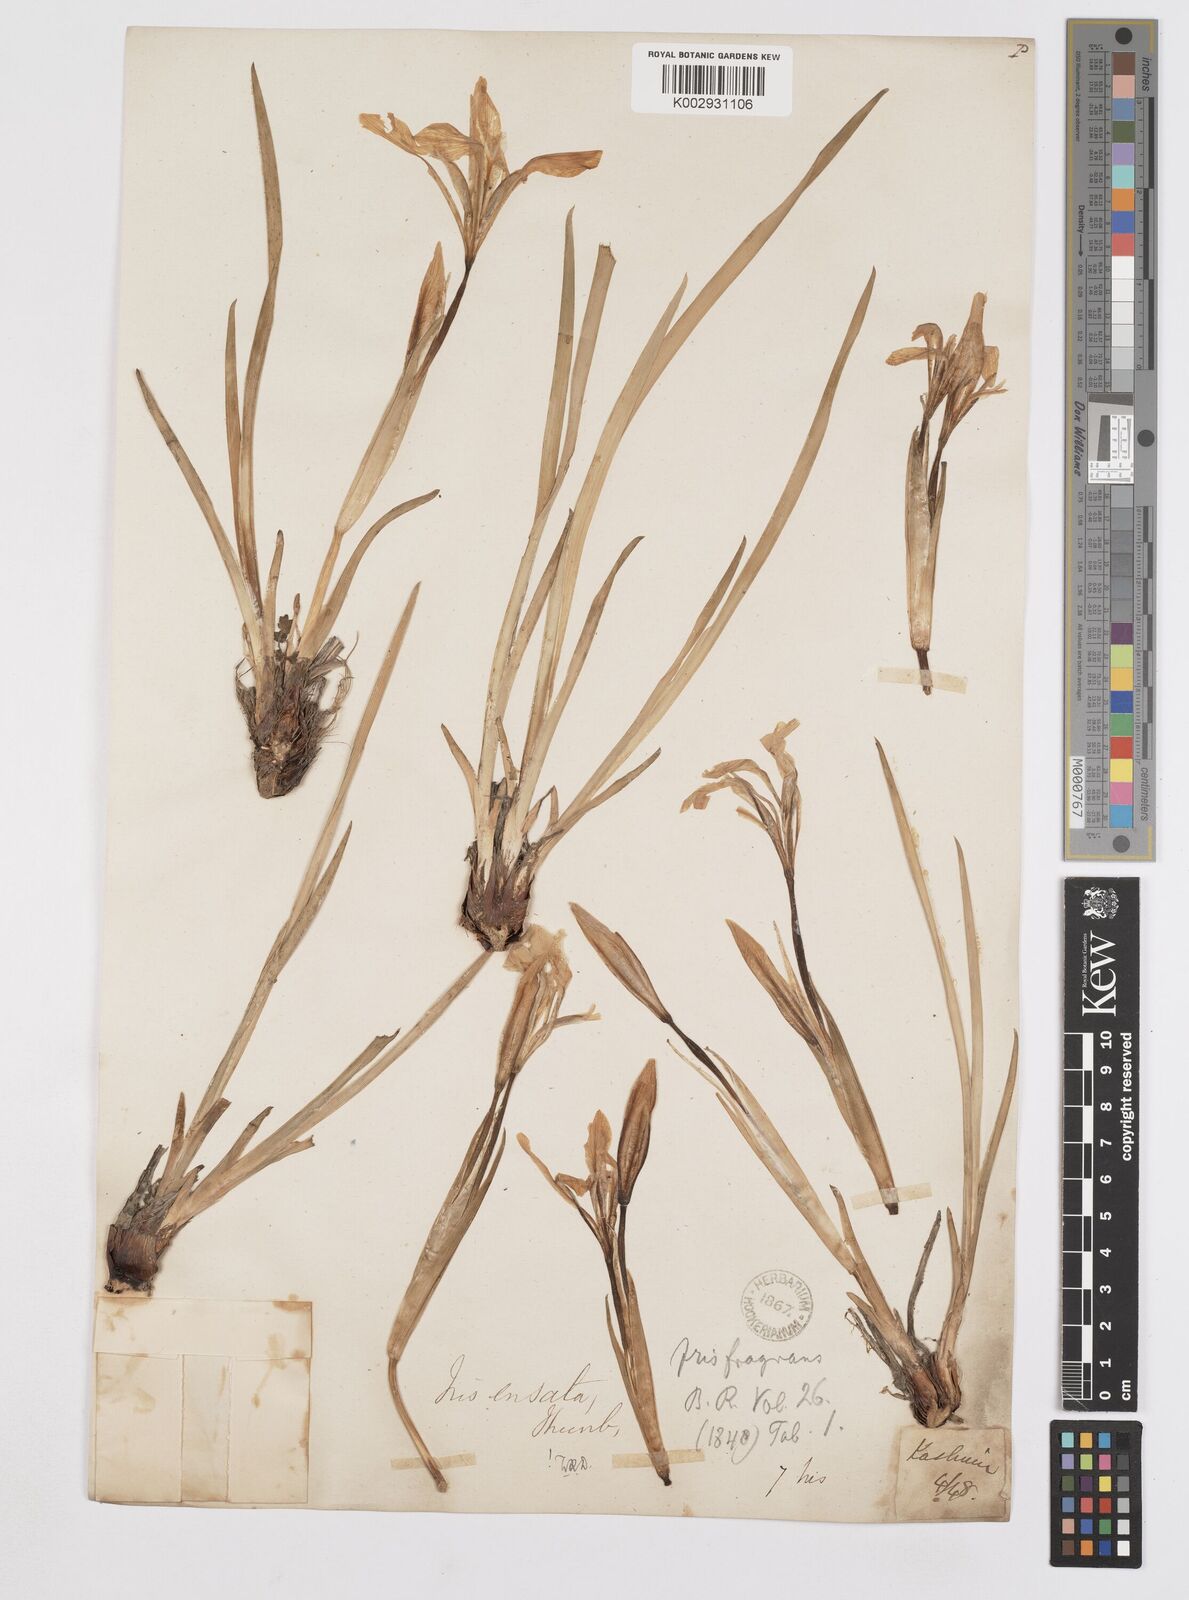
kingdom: Plantae
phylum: Tracheophyta
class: Liliopsida
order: Asparagales
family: Iridaceae
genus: Iris
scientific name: Iris ensata
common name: Beaked iris
